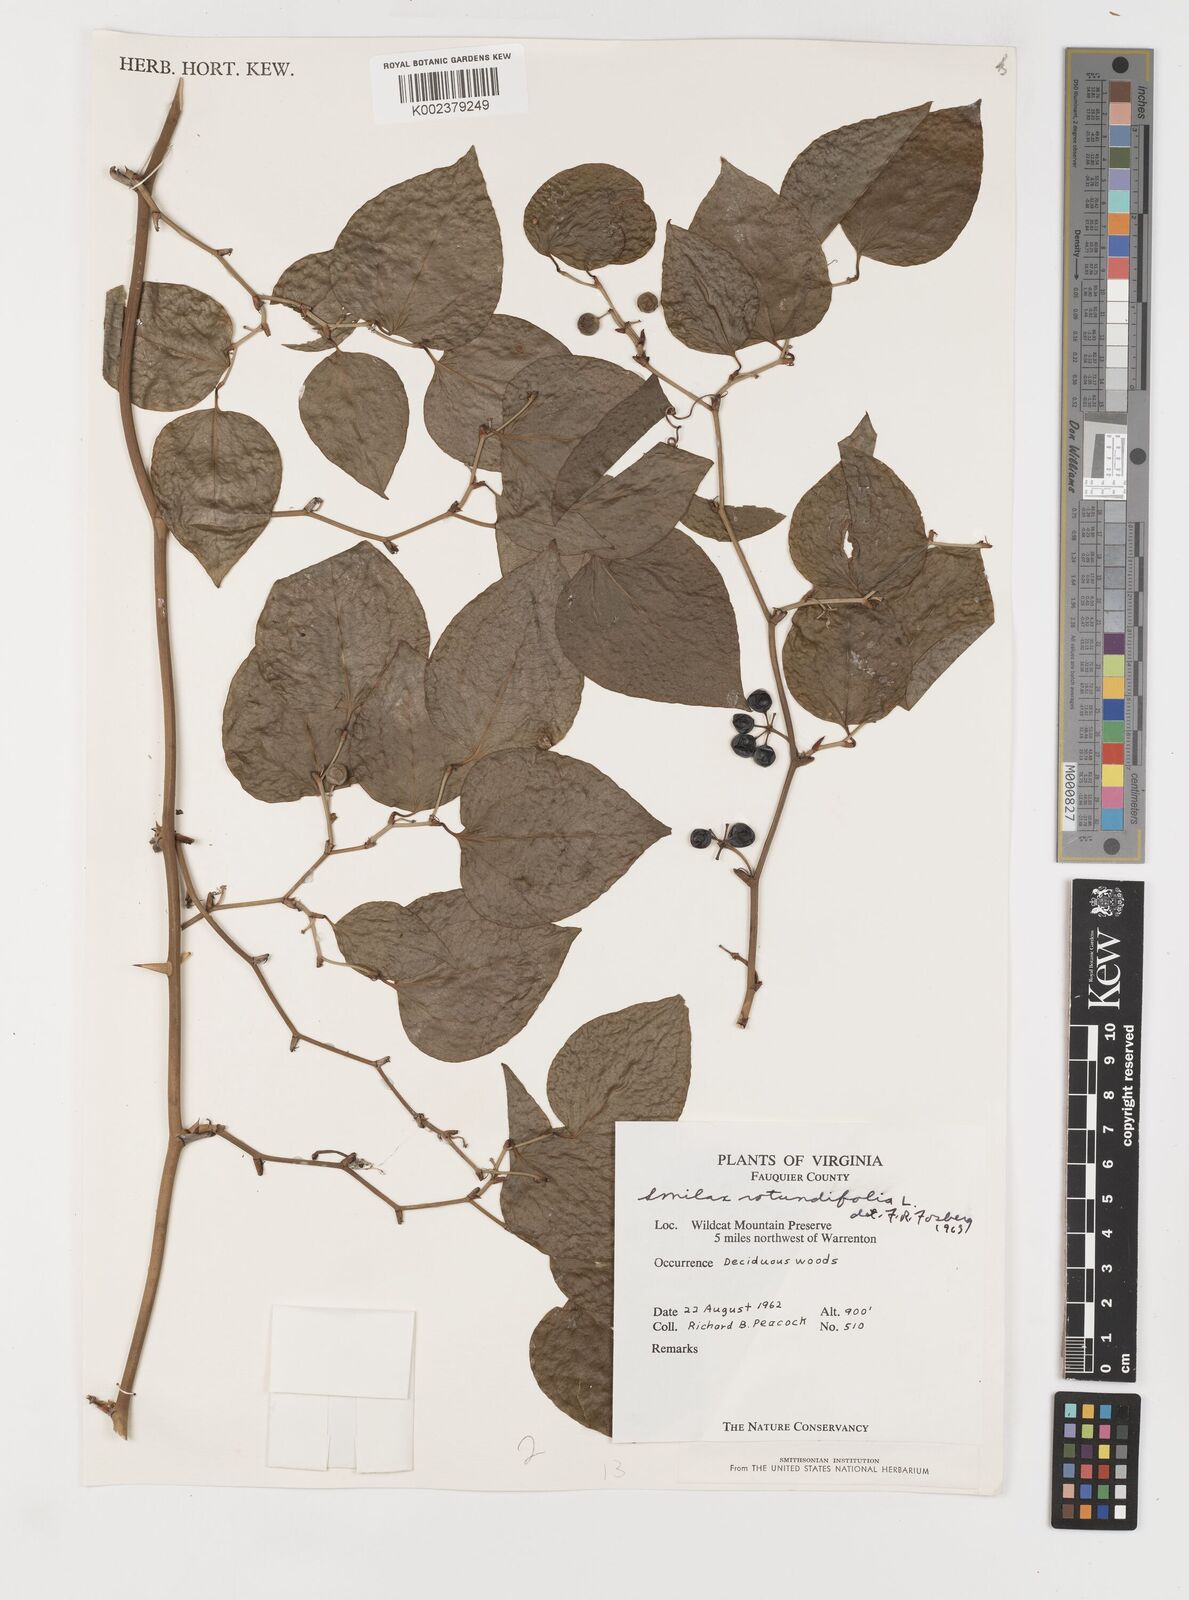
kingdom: Plantae
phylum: Tracheophyta
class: Liliopsida
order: Liliales
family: Smilacaceae
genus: Smilax
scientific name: Smilax rotundifolia
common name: Bullbriar
